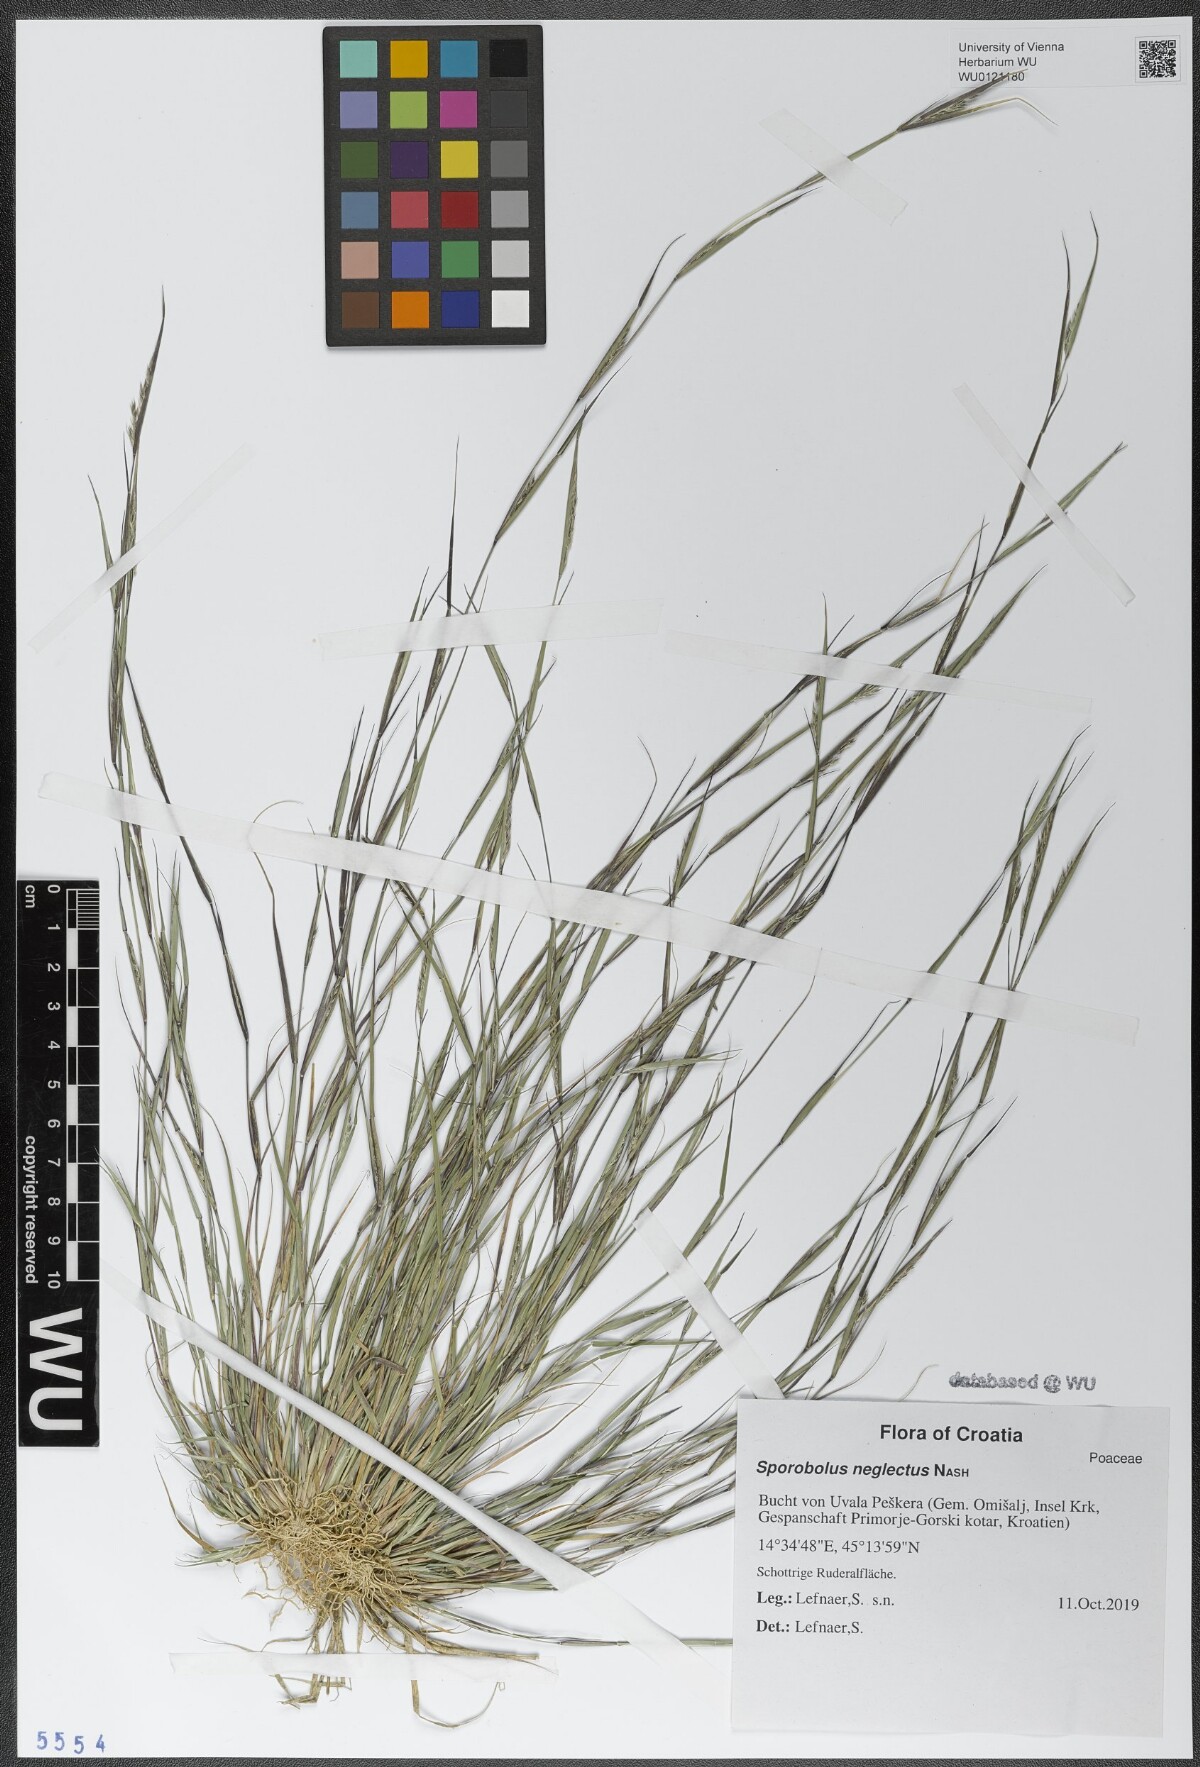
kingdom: Plantae
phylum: Tracheophyta
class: Liliopsida
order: Poales
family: Poaceae
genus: Sporobolus
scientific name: Sporobolus neglectus
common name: Annual dropseed
